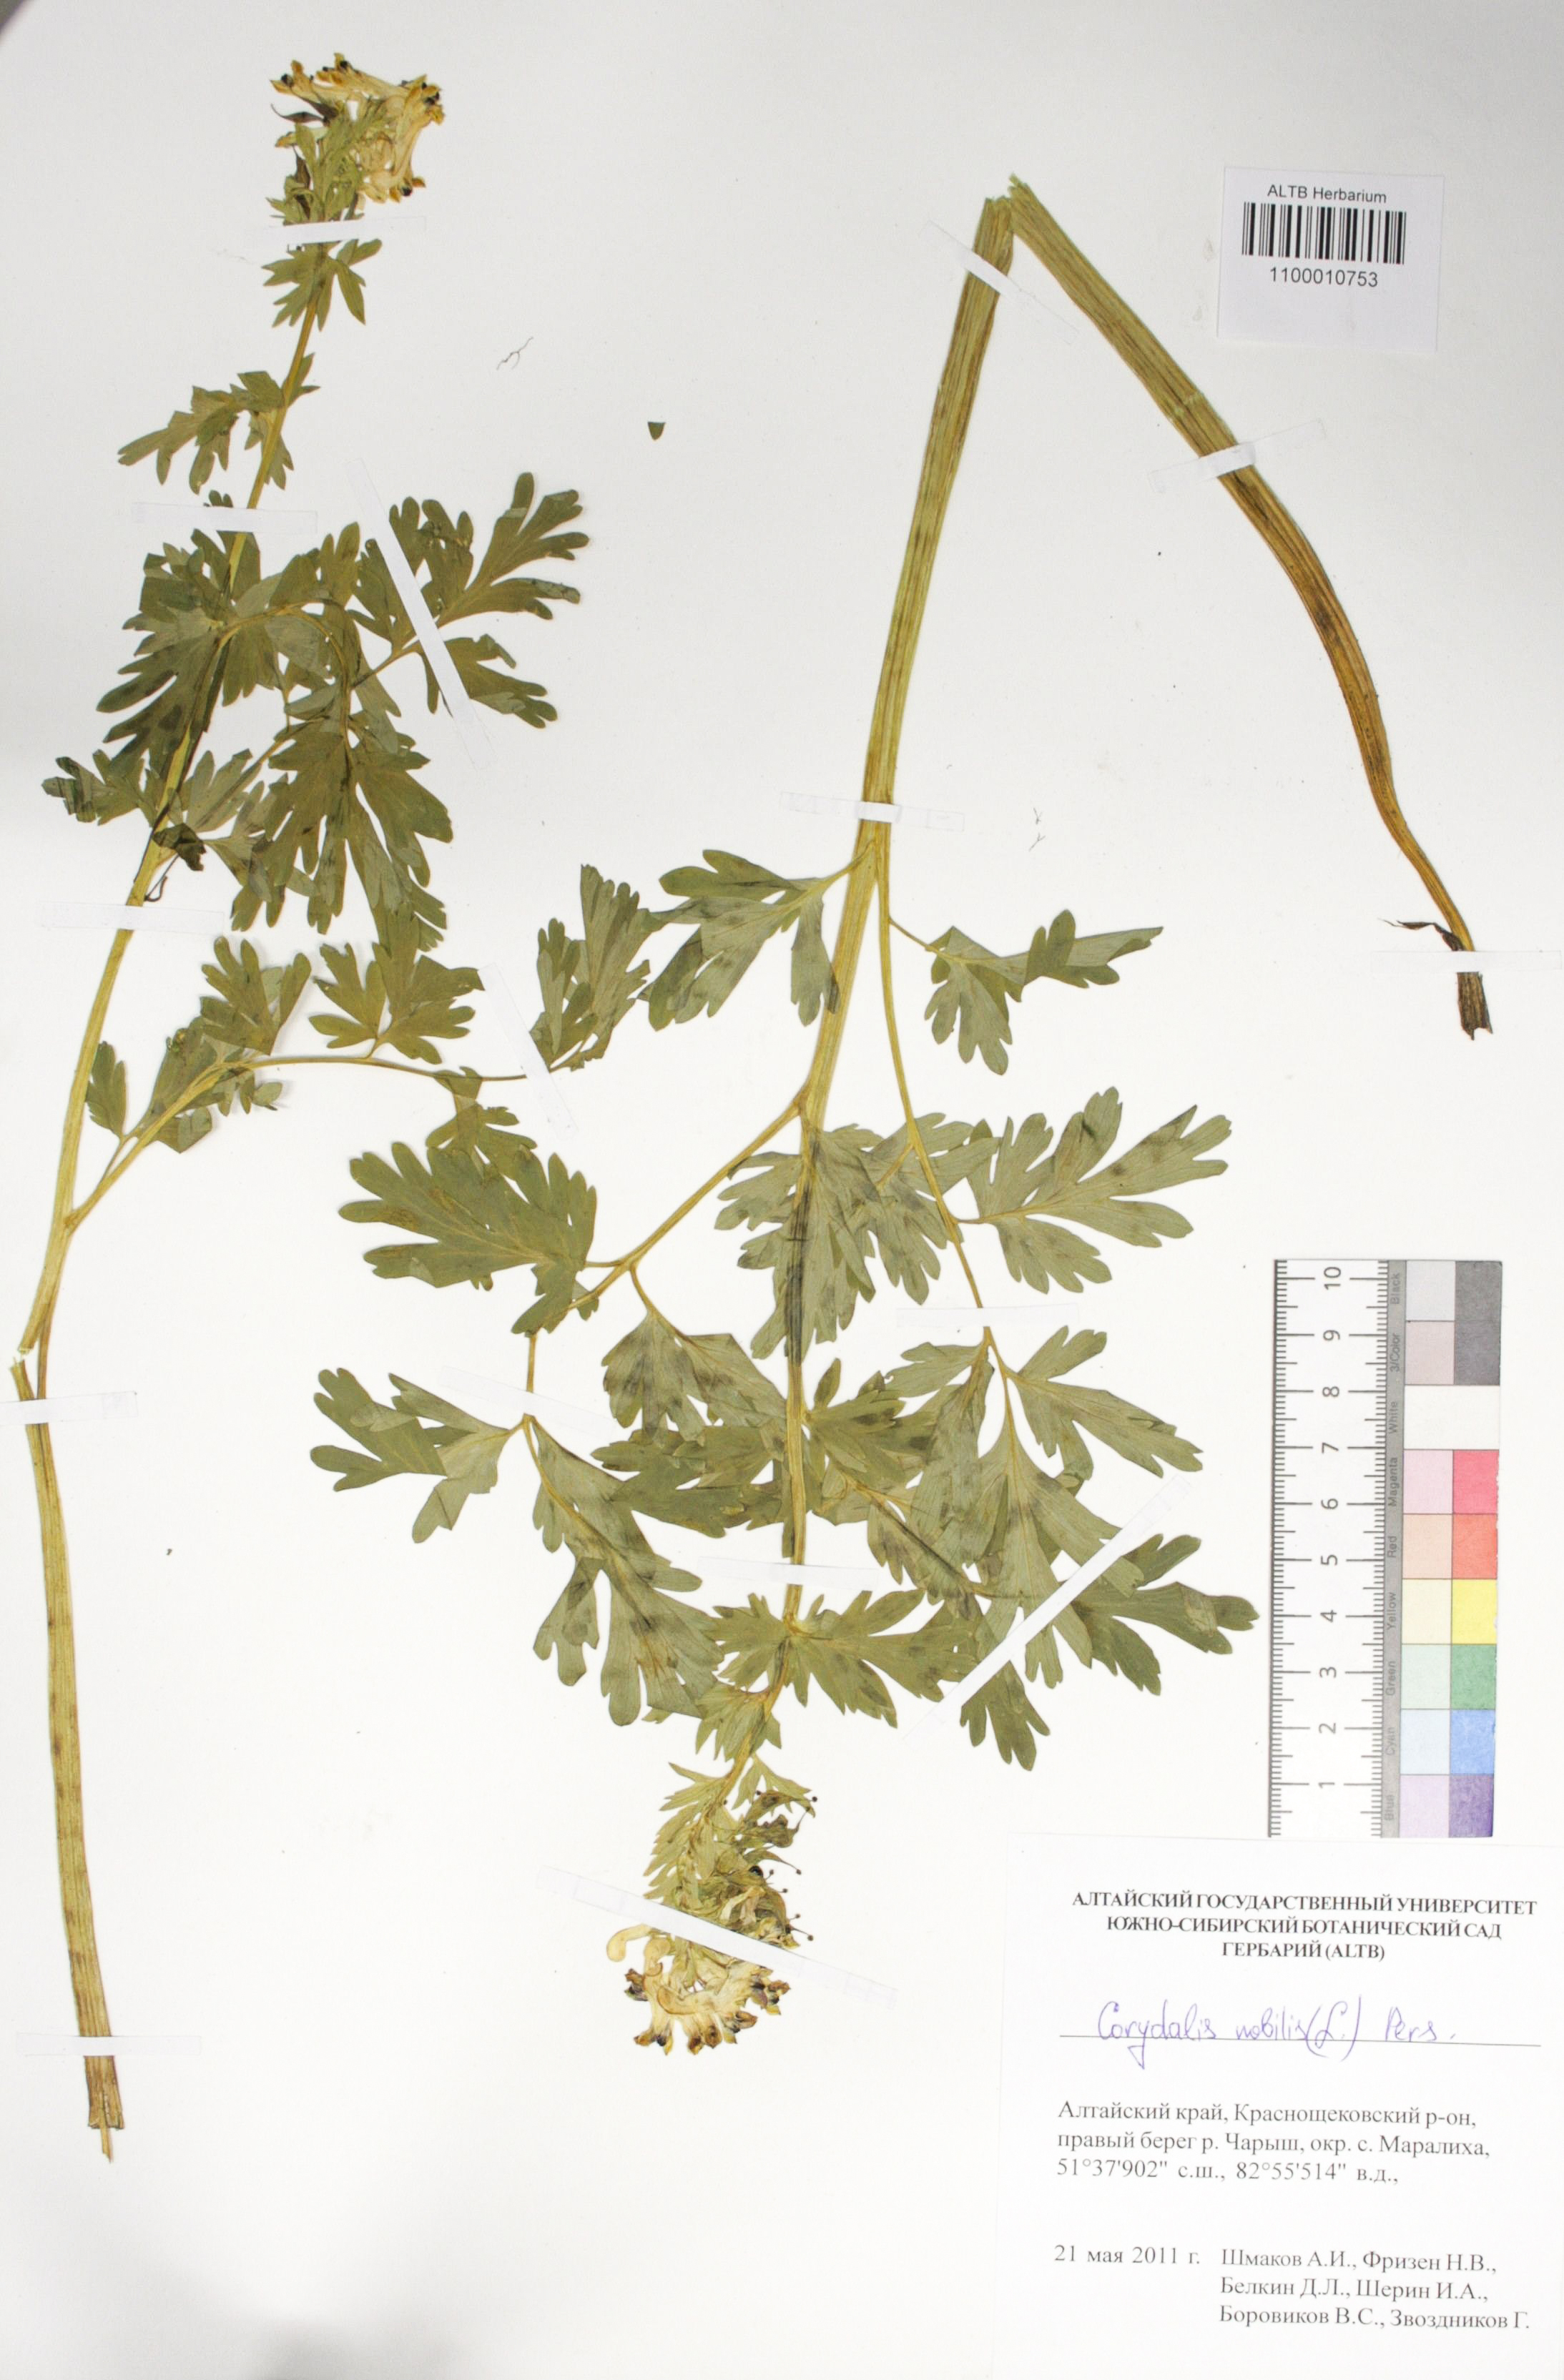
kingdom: Plantae
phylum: Tracheophyta
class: Magnoliopsida
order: Ranunculales
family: Papaveraceae
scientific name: Papaveraceae
